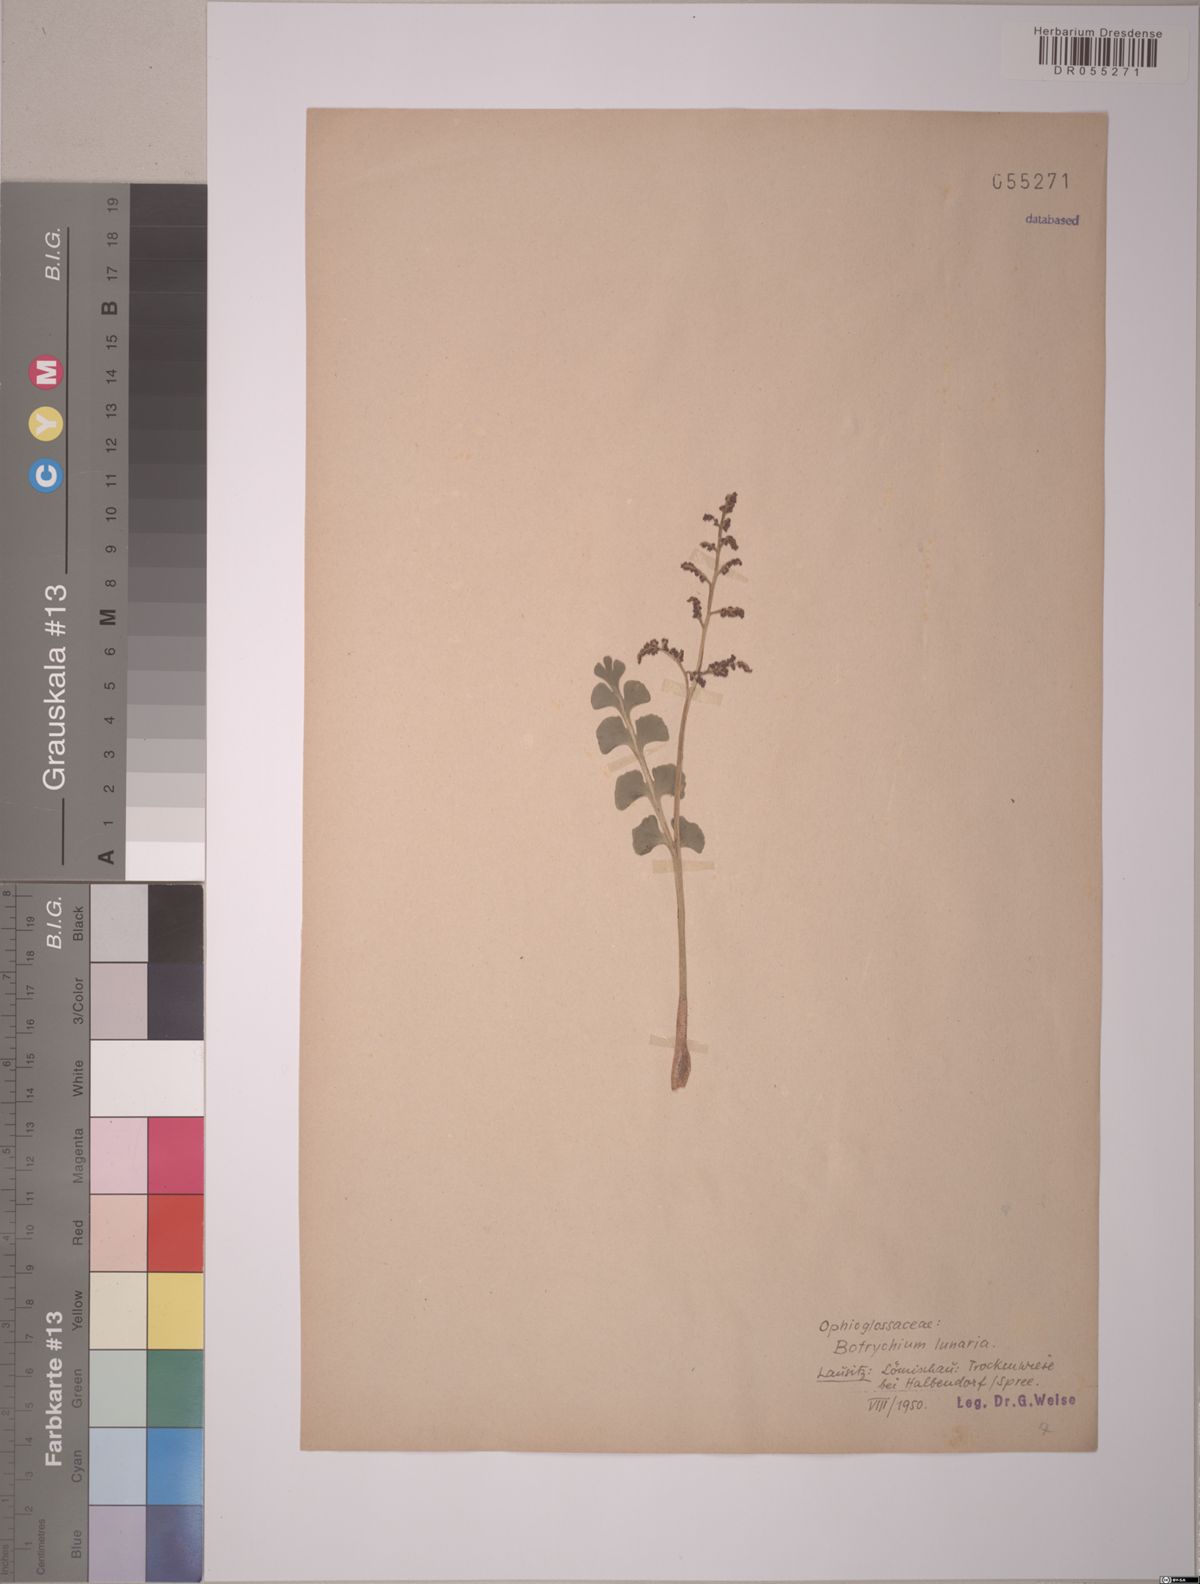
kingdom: Plantae
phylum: Tracheophyta
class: Polypodiopsida
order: Ophioglossales
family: Ophioglossaceae
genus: Botrychium
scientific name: Botrychium lunaria
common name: Moonwort
